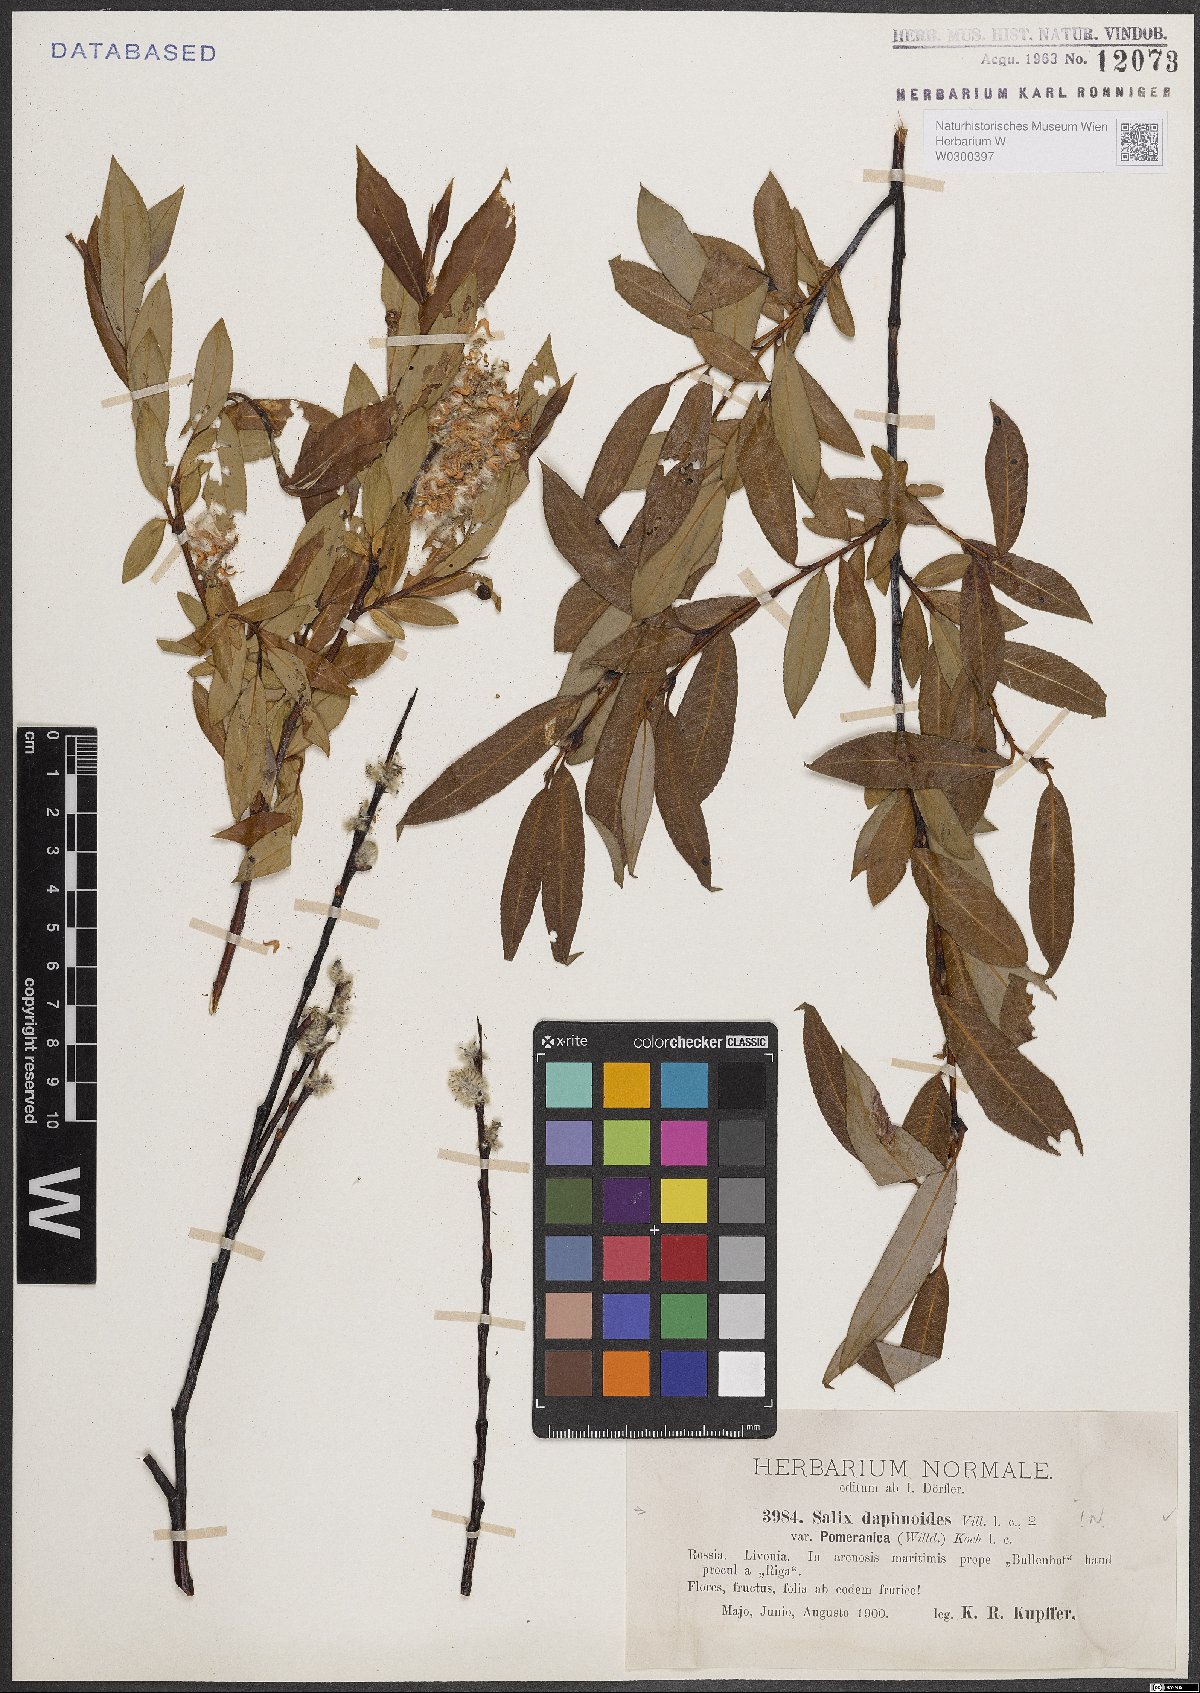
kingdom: Plantae
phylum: Tracheophyta
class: Magnoliopsida
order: Malpighiales
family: Salicaceae
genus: Salix
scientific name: Salix daphnoides
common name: European violet-willow
